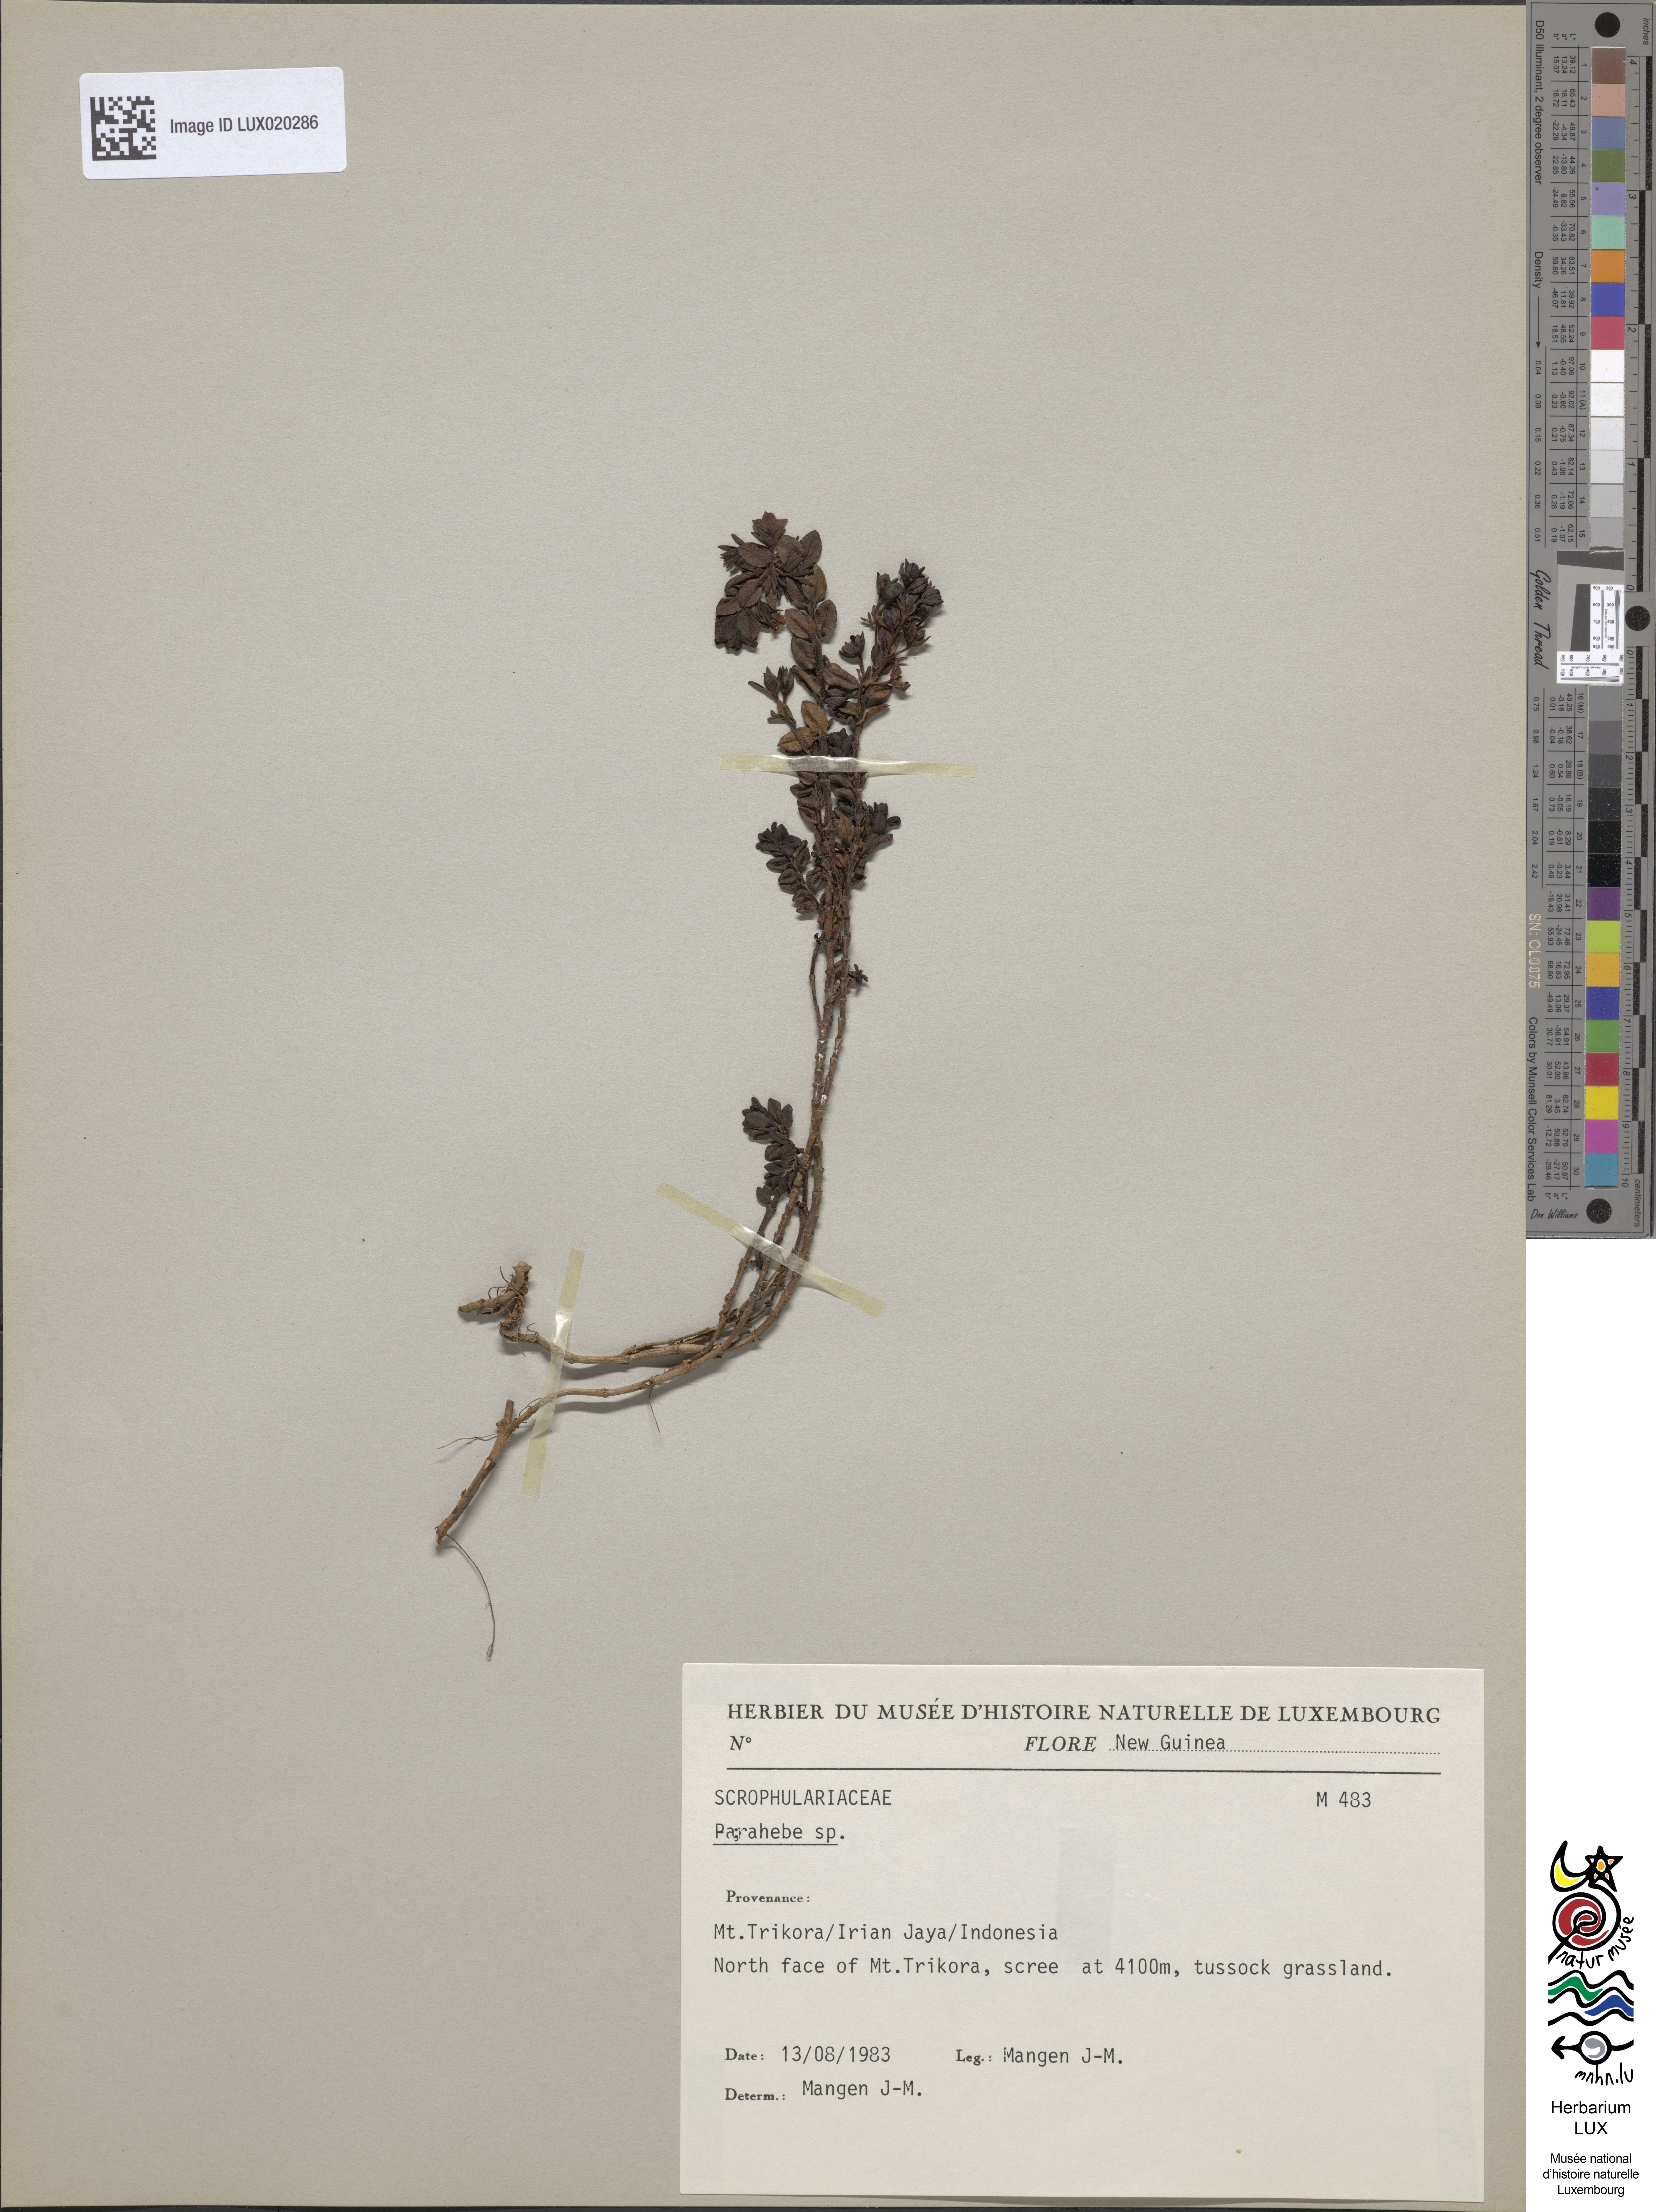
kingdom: Plantae
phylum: Tracheophyta
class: Magnoliopsida
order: Lamiales
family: Plantaginaceae
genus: Veronica
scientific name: Veronica
